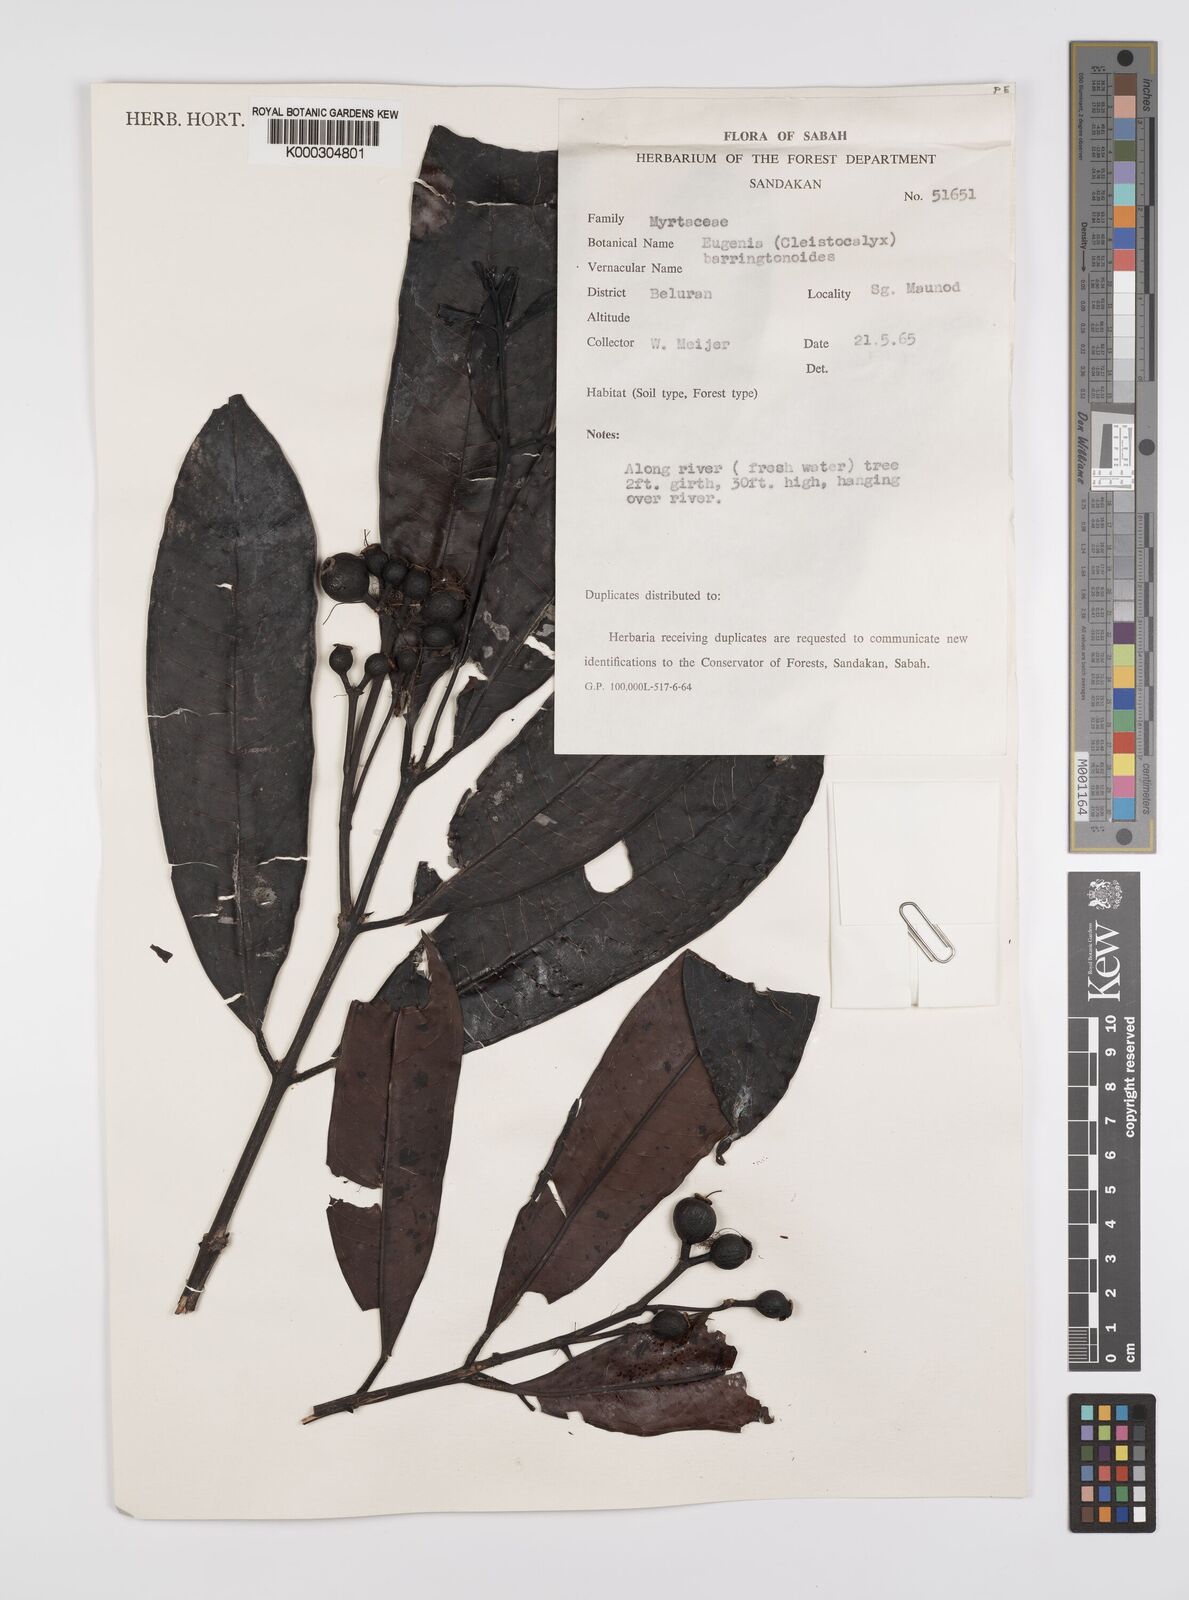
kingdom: Plantae
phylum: Tracheophyta
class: Magnoliopsida
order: Myrtales
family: Myrtaceae
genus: Syzygium
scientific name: Syzygium barringtonioides
